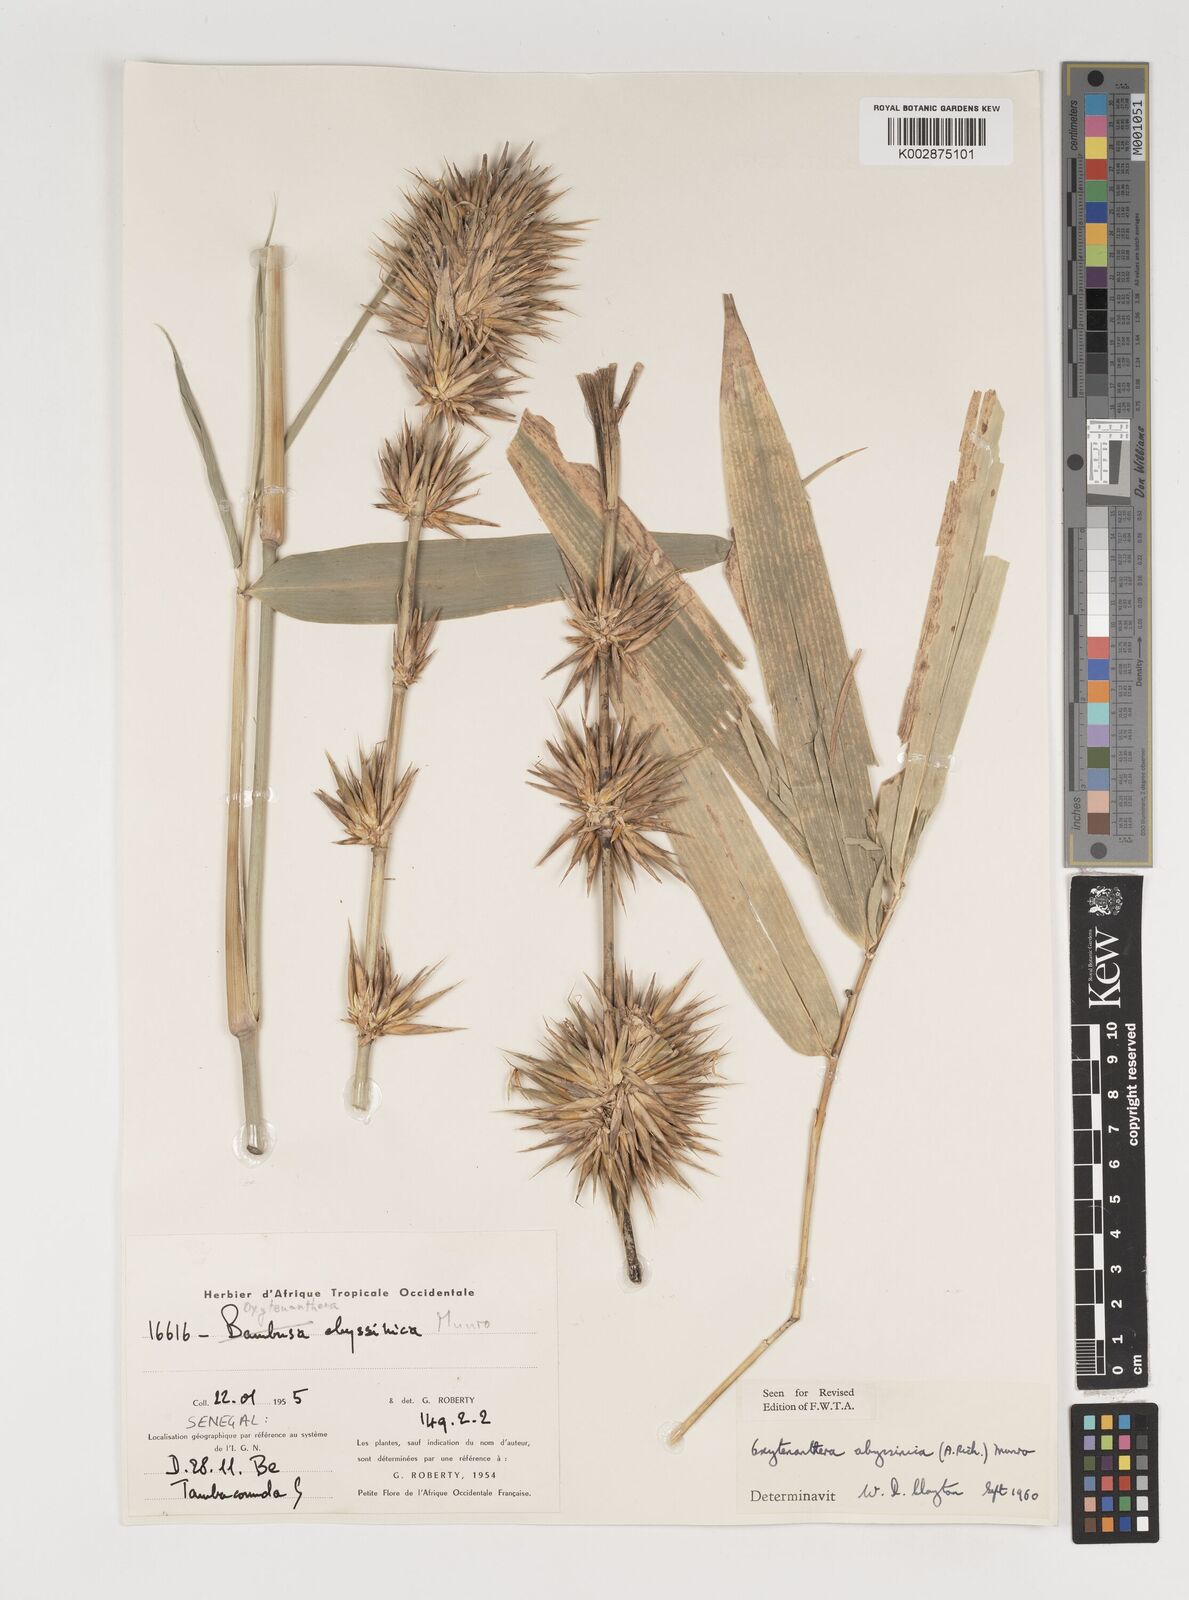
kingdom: Plantae
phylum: Tracheophyta
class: Liliopsida
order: Poales
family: Poaceae
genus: Oxytenanthera
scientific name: Oxytenanthera abyssinica
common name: Wine bamboo
